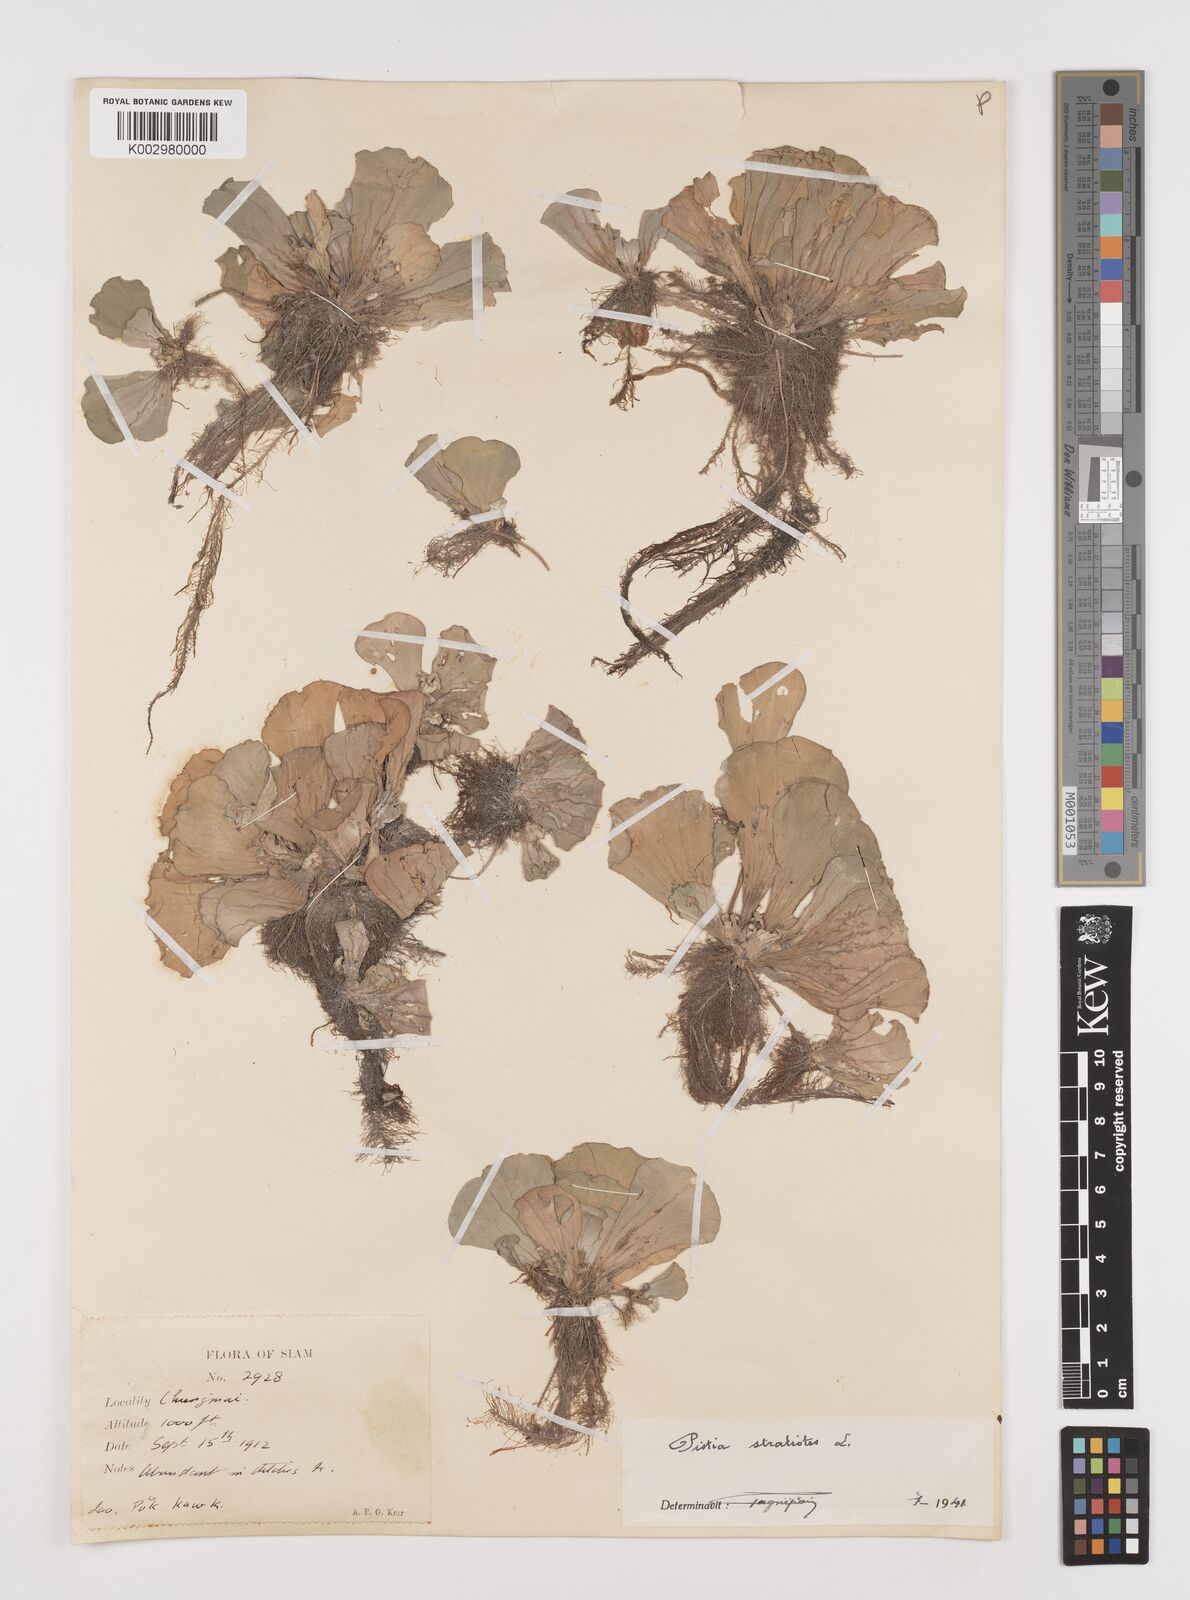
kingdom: Plantae
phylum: Tracheophyta
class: Liliopsida
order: Alismatales
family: Araceae
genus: Pistia
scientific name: Pistia stratiotes
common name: Water lettuce
